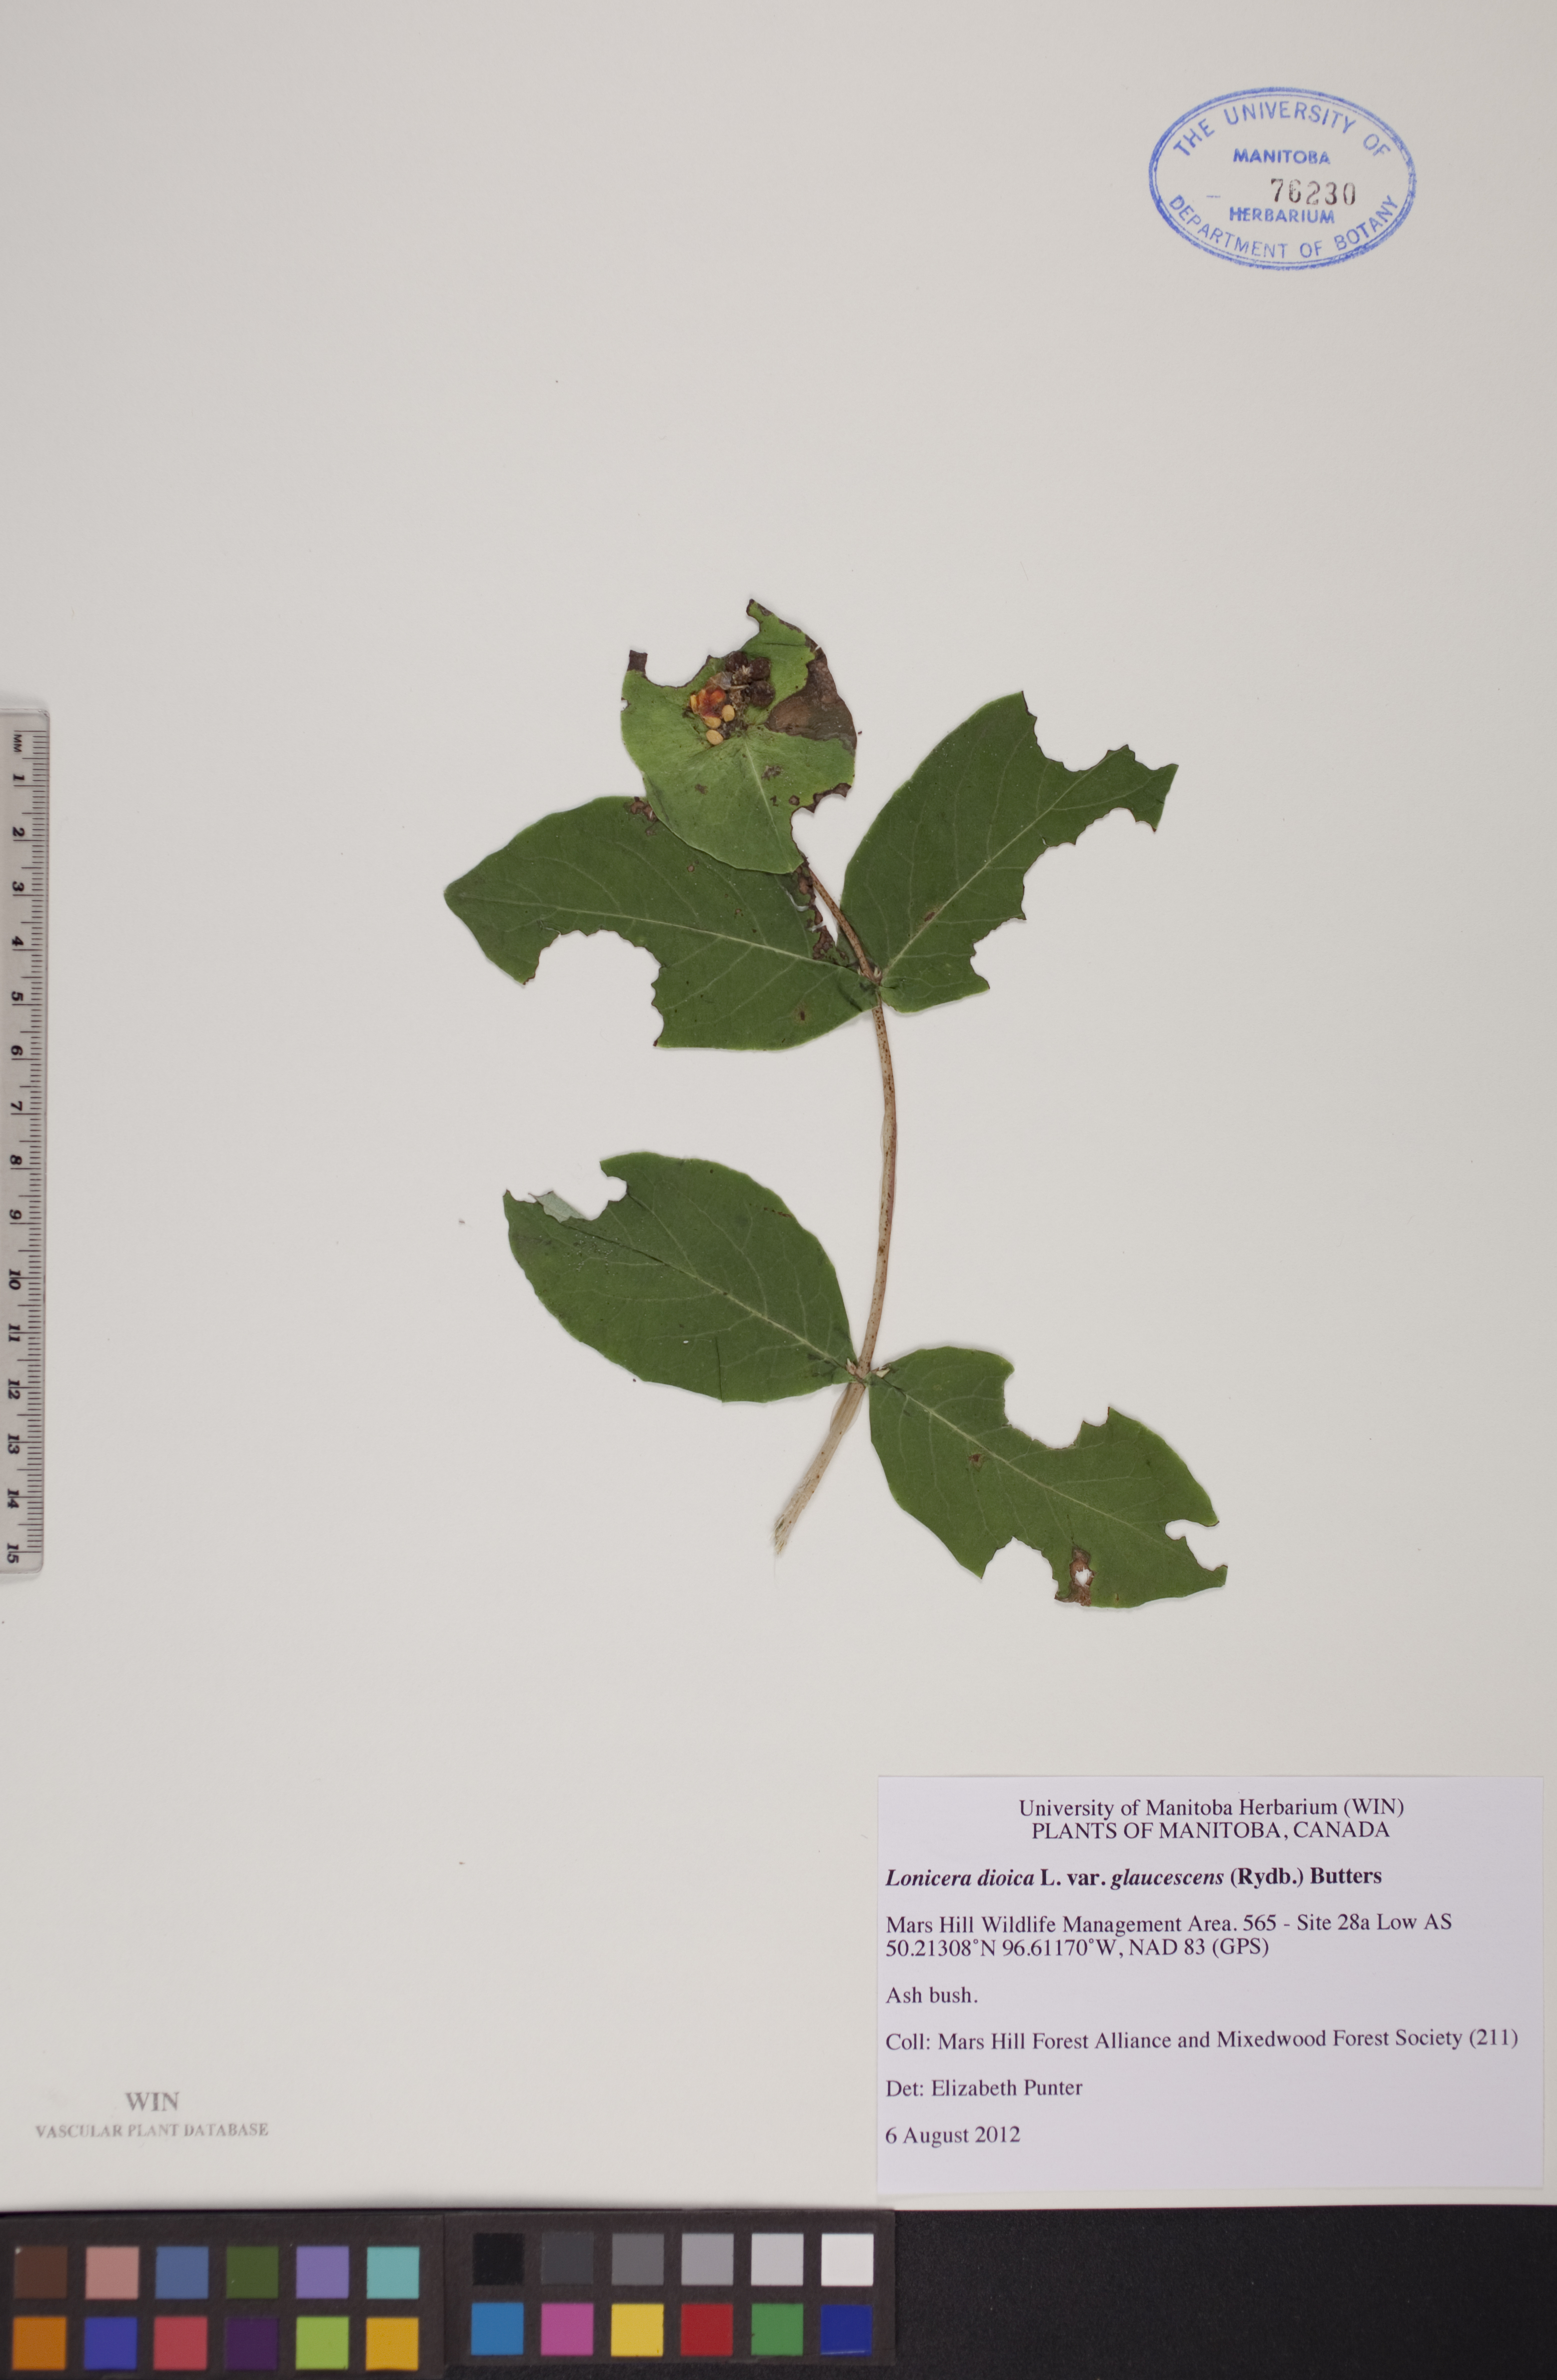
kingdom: Plantae
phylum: Tracheophyta
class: Magnoliopsida
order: Dipsacales
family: Caprifoliaceae
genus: Lonicera
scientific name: Lonicera dioica
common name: Limber honeysuckle
